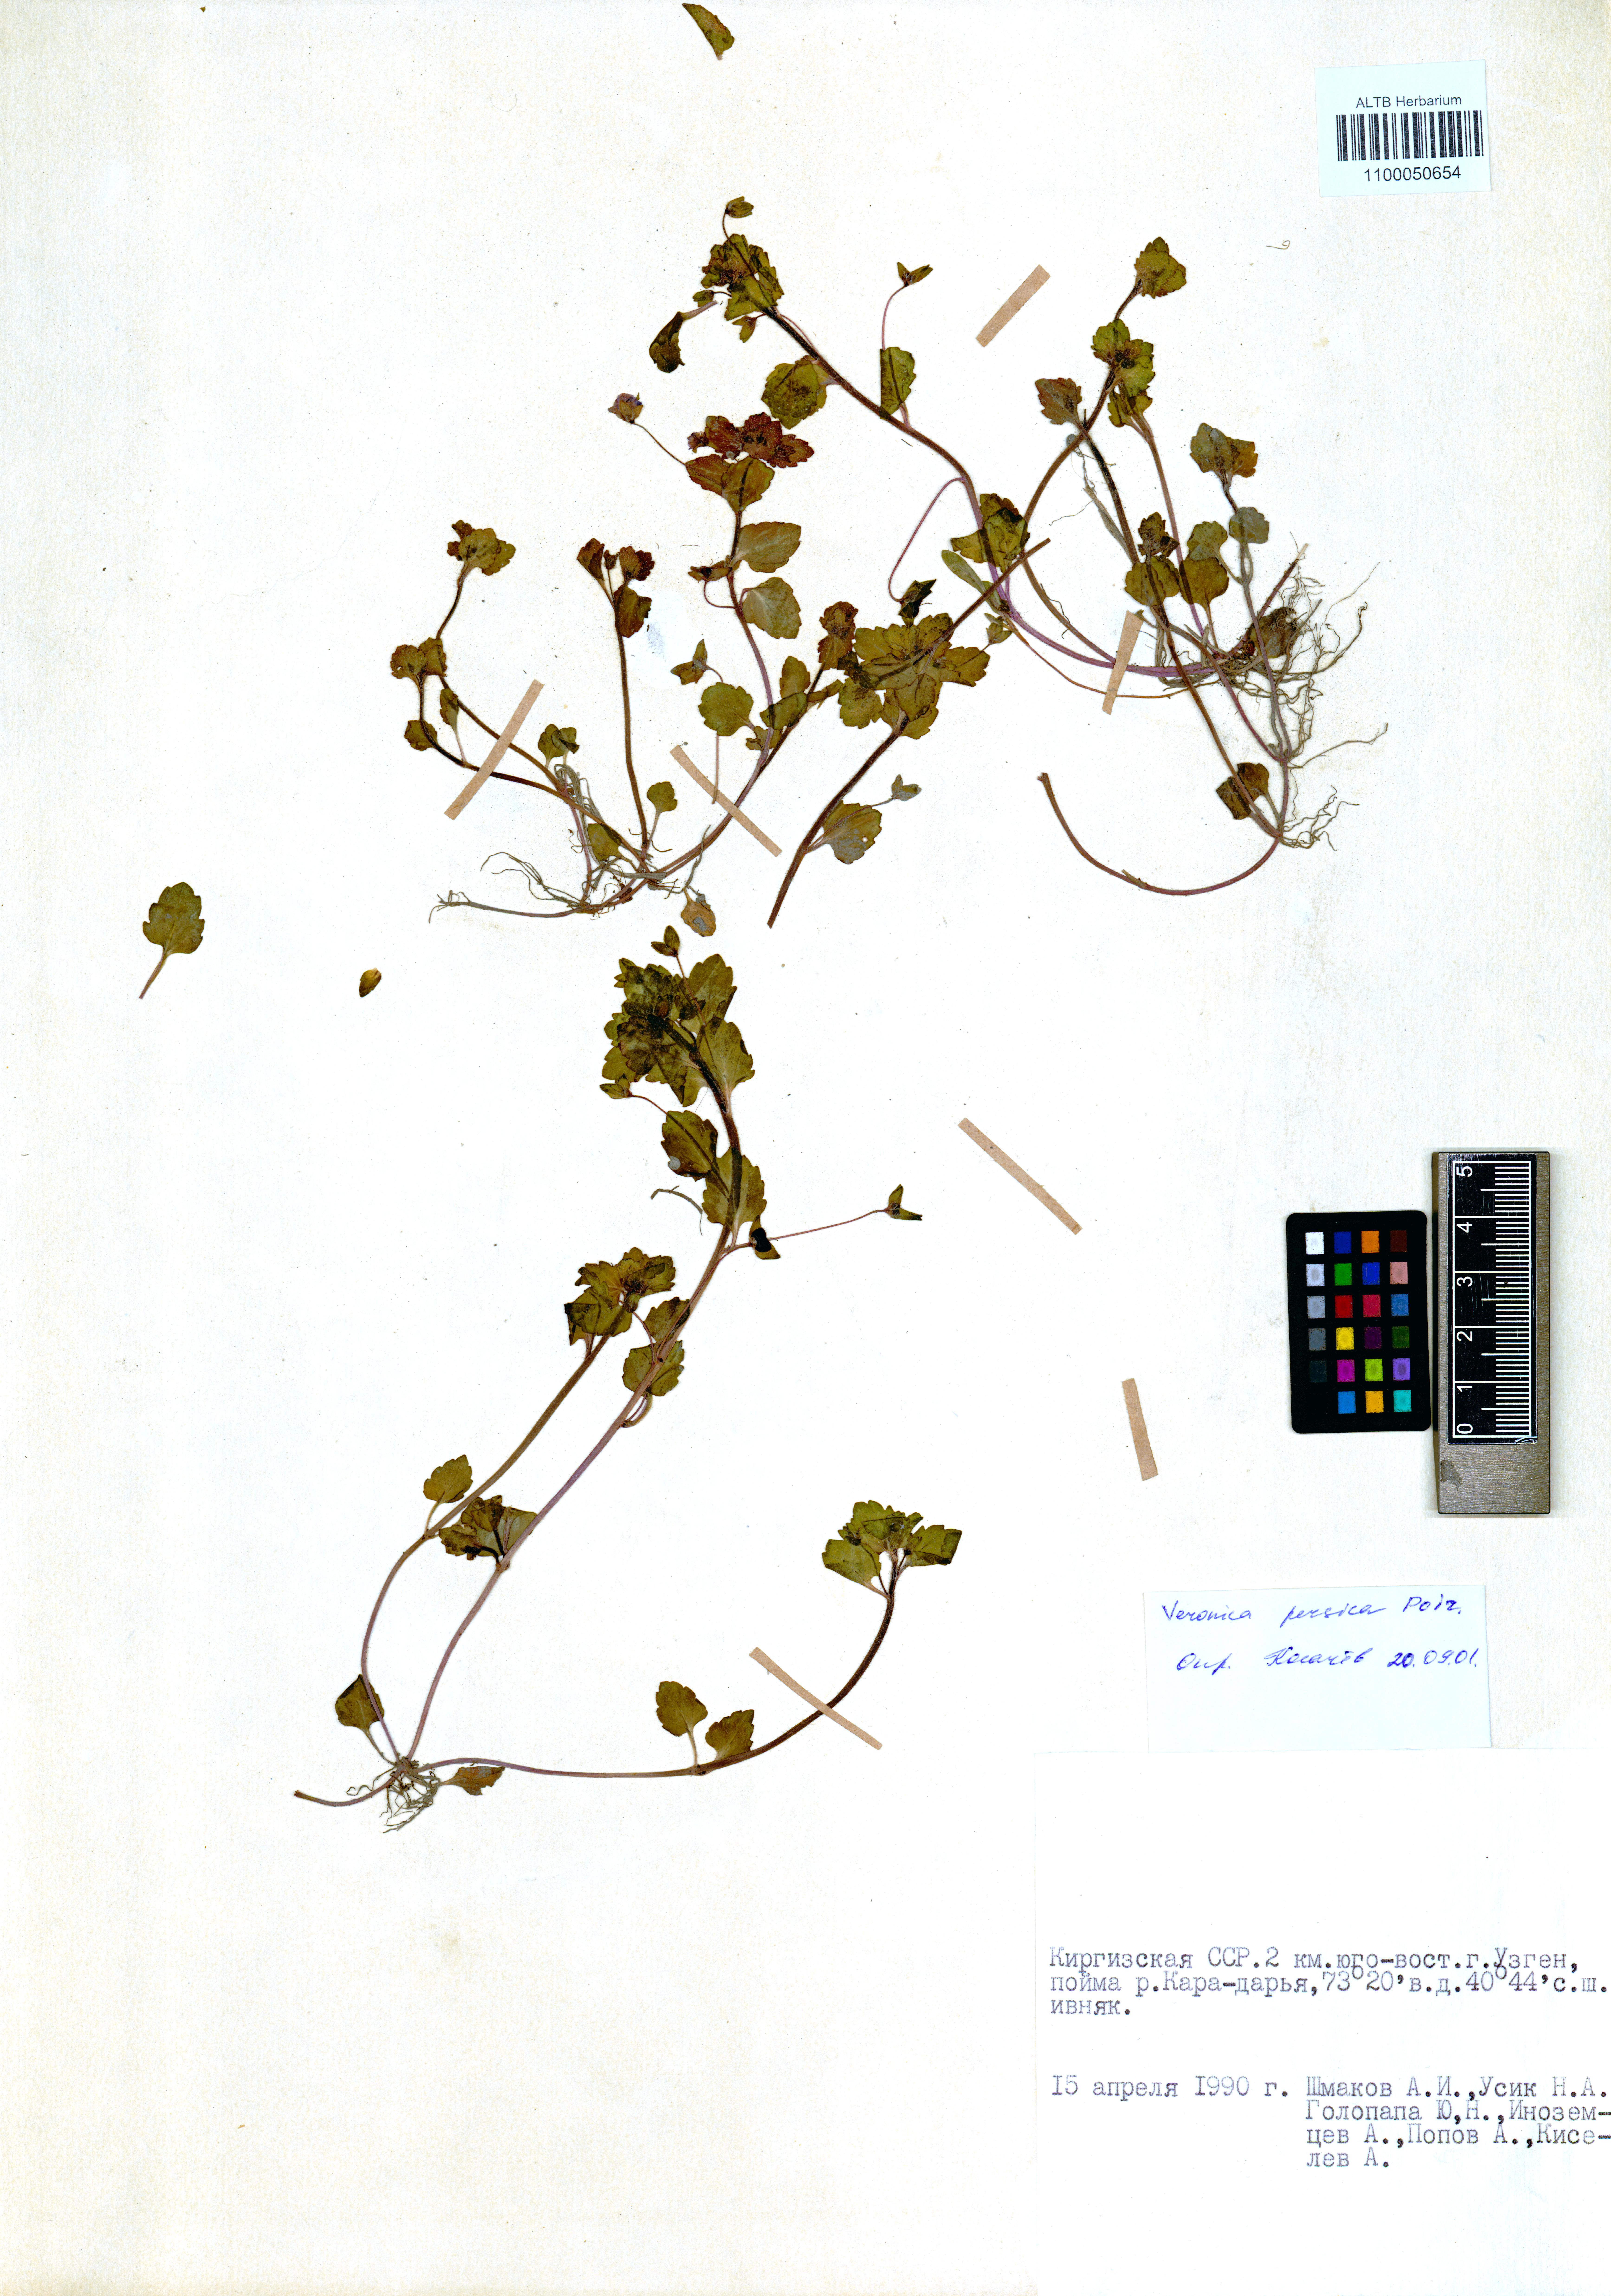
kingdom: Plantae
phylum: Tracheophyta
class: Magnoliopsida
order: Lamiales
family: Plantaginaceae
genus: Veronica
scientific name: Veronica persica
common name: Common field-speedwell
